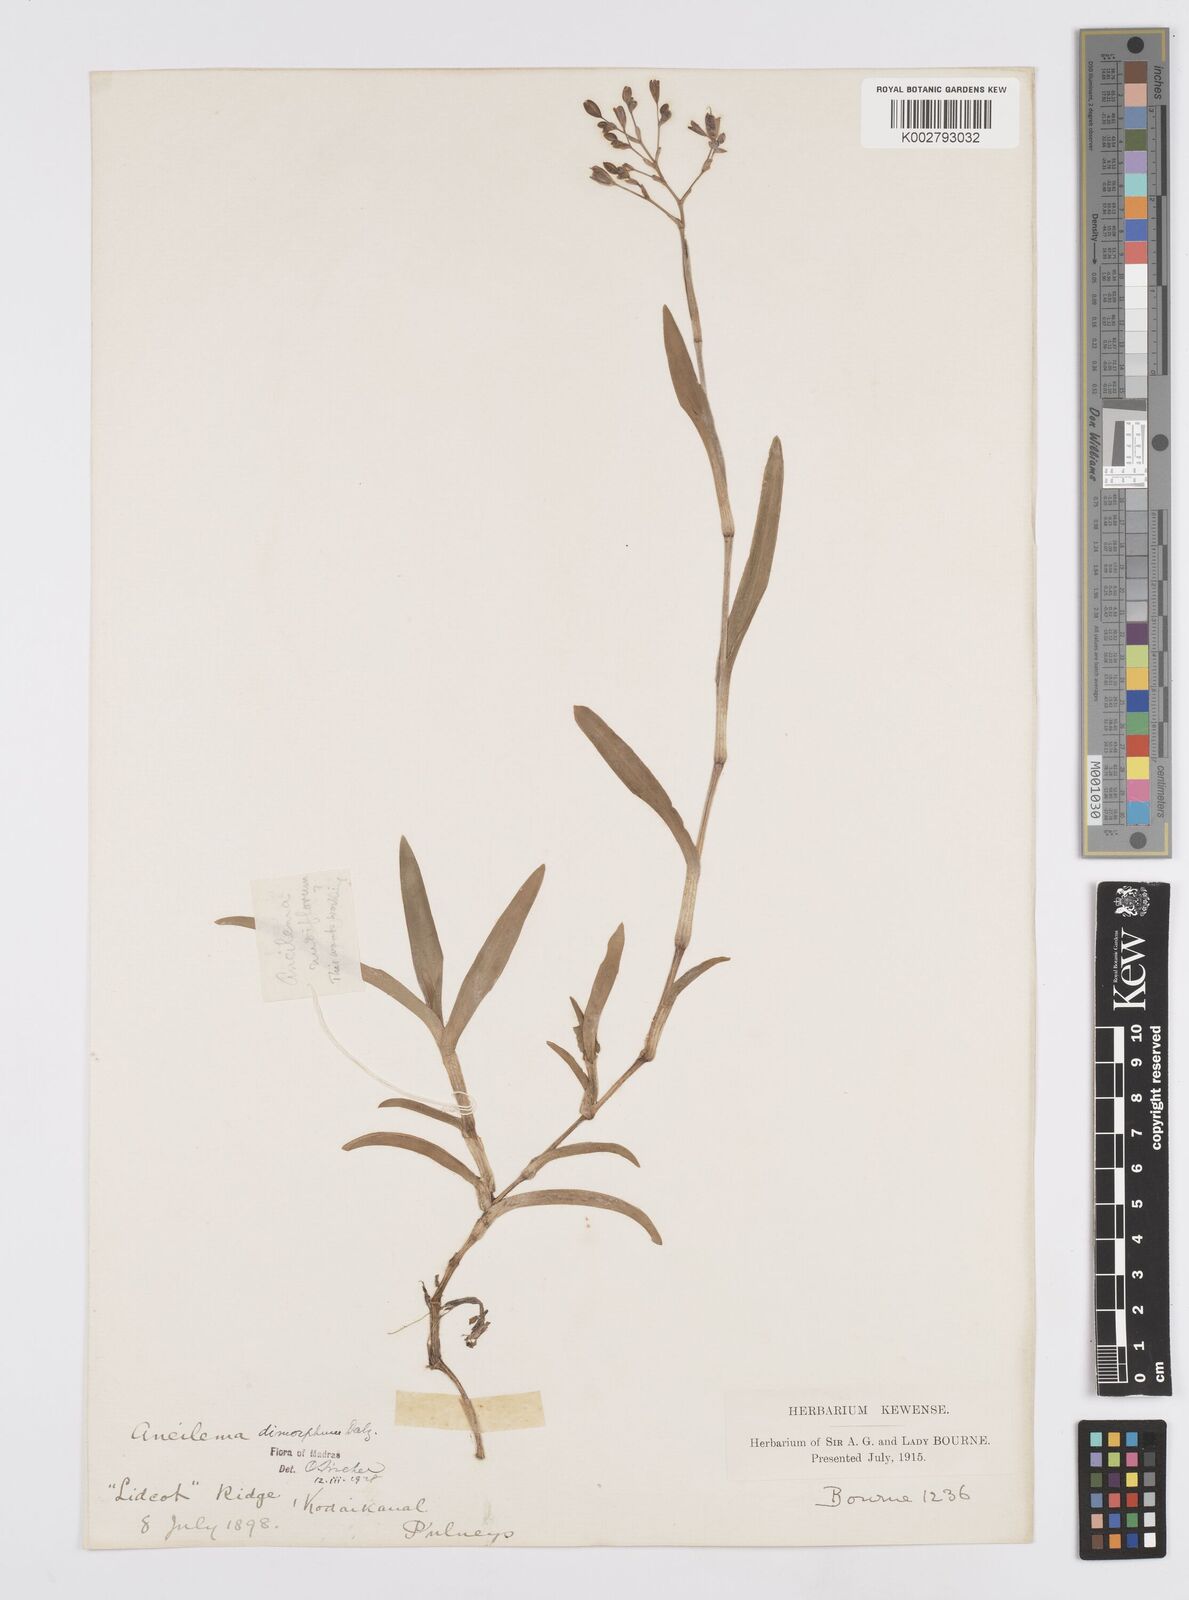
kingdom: Plantae
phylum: Tracheophyta
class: Liliopsida
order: Commelinales
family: Commelinaceae
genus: Murdannia
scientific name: Murdannia dimorpha
